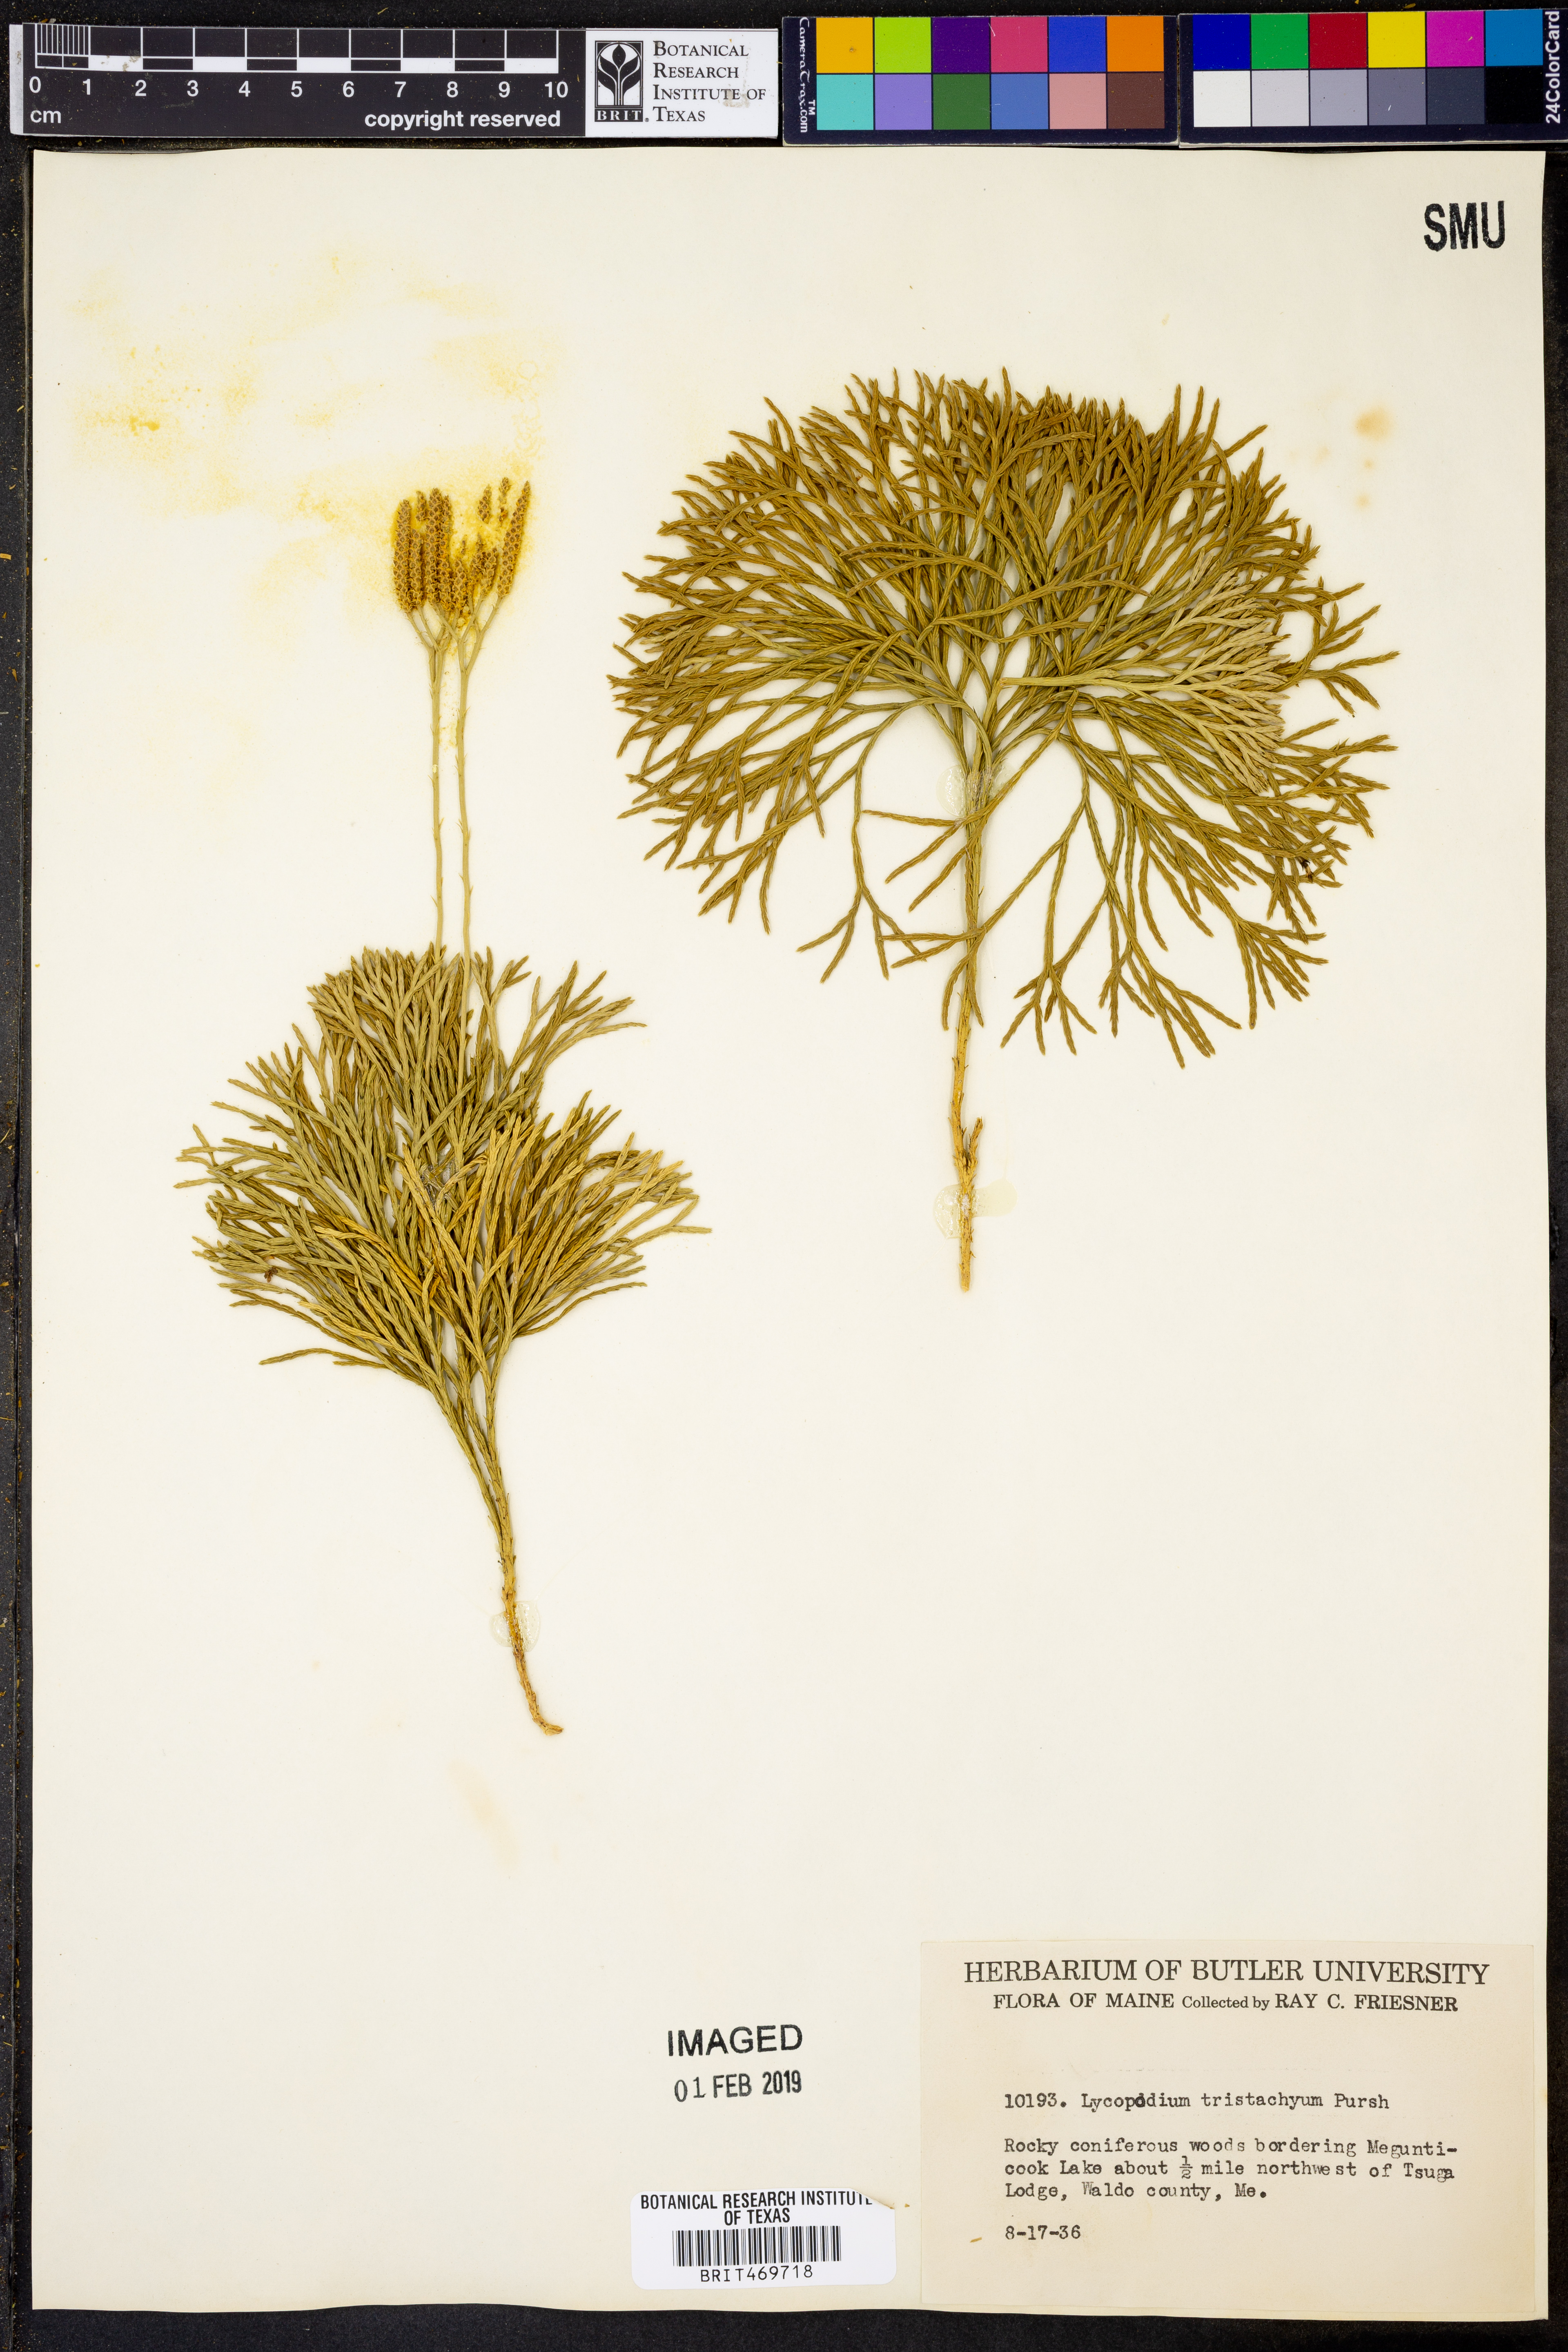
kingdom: Plantae
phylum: Tracheophyta
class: Lycopodiopsida
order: Lycopodiales
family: Lycopodiaceae
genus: Diphasiastrum
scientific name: Diphasiastrum tristachyum
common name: Blue ground-cedar
